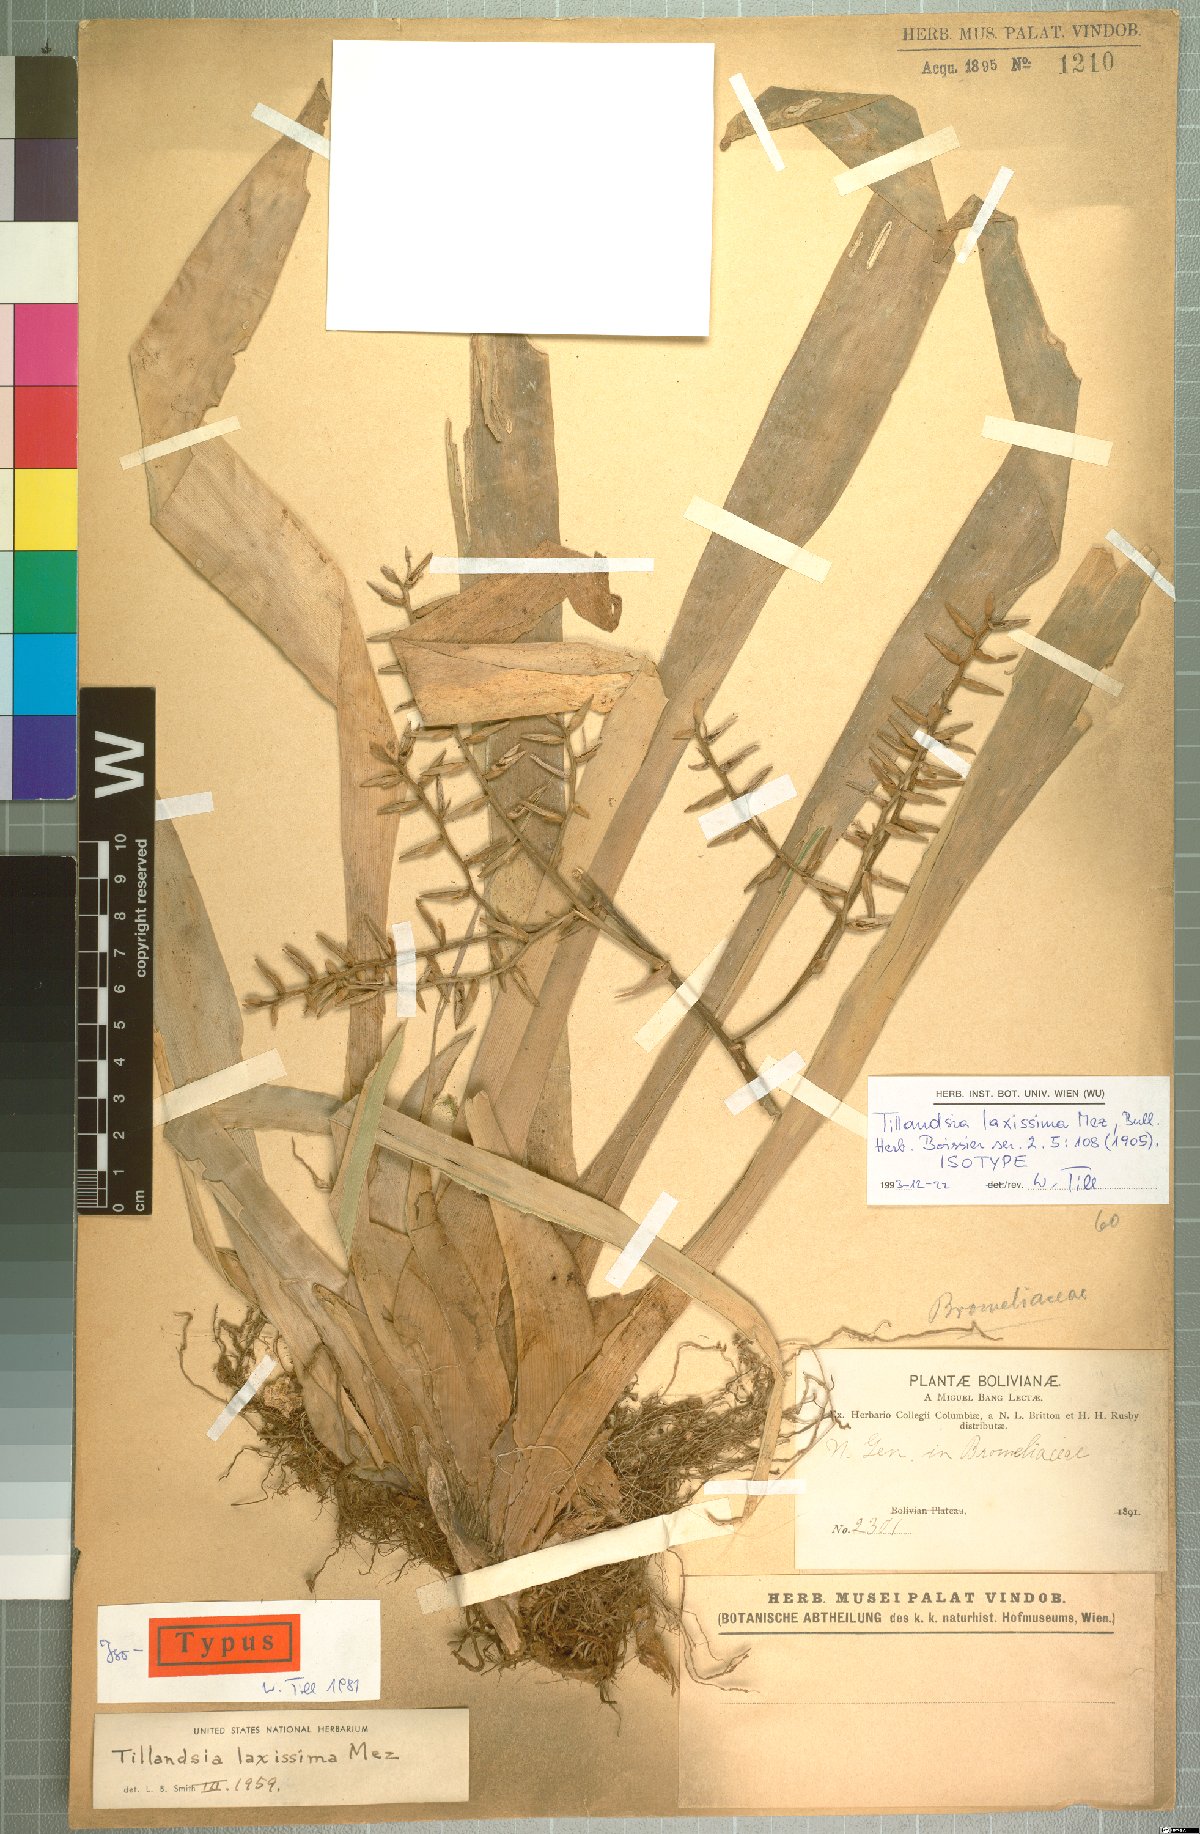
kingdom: Plantae
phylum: Tracheophyta
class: Liliopsida
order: Poales
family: Bromeliaceae
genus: Barfussia
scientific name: Barfussia laxissima
